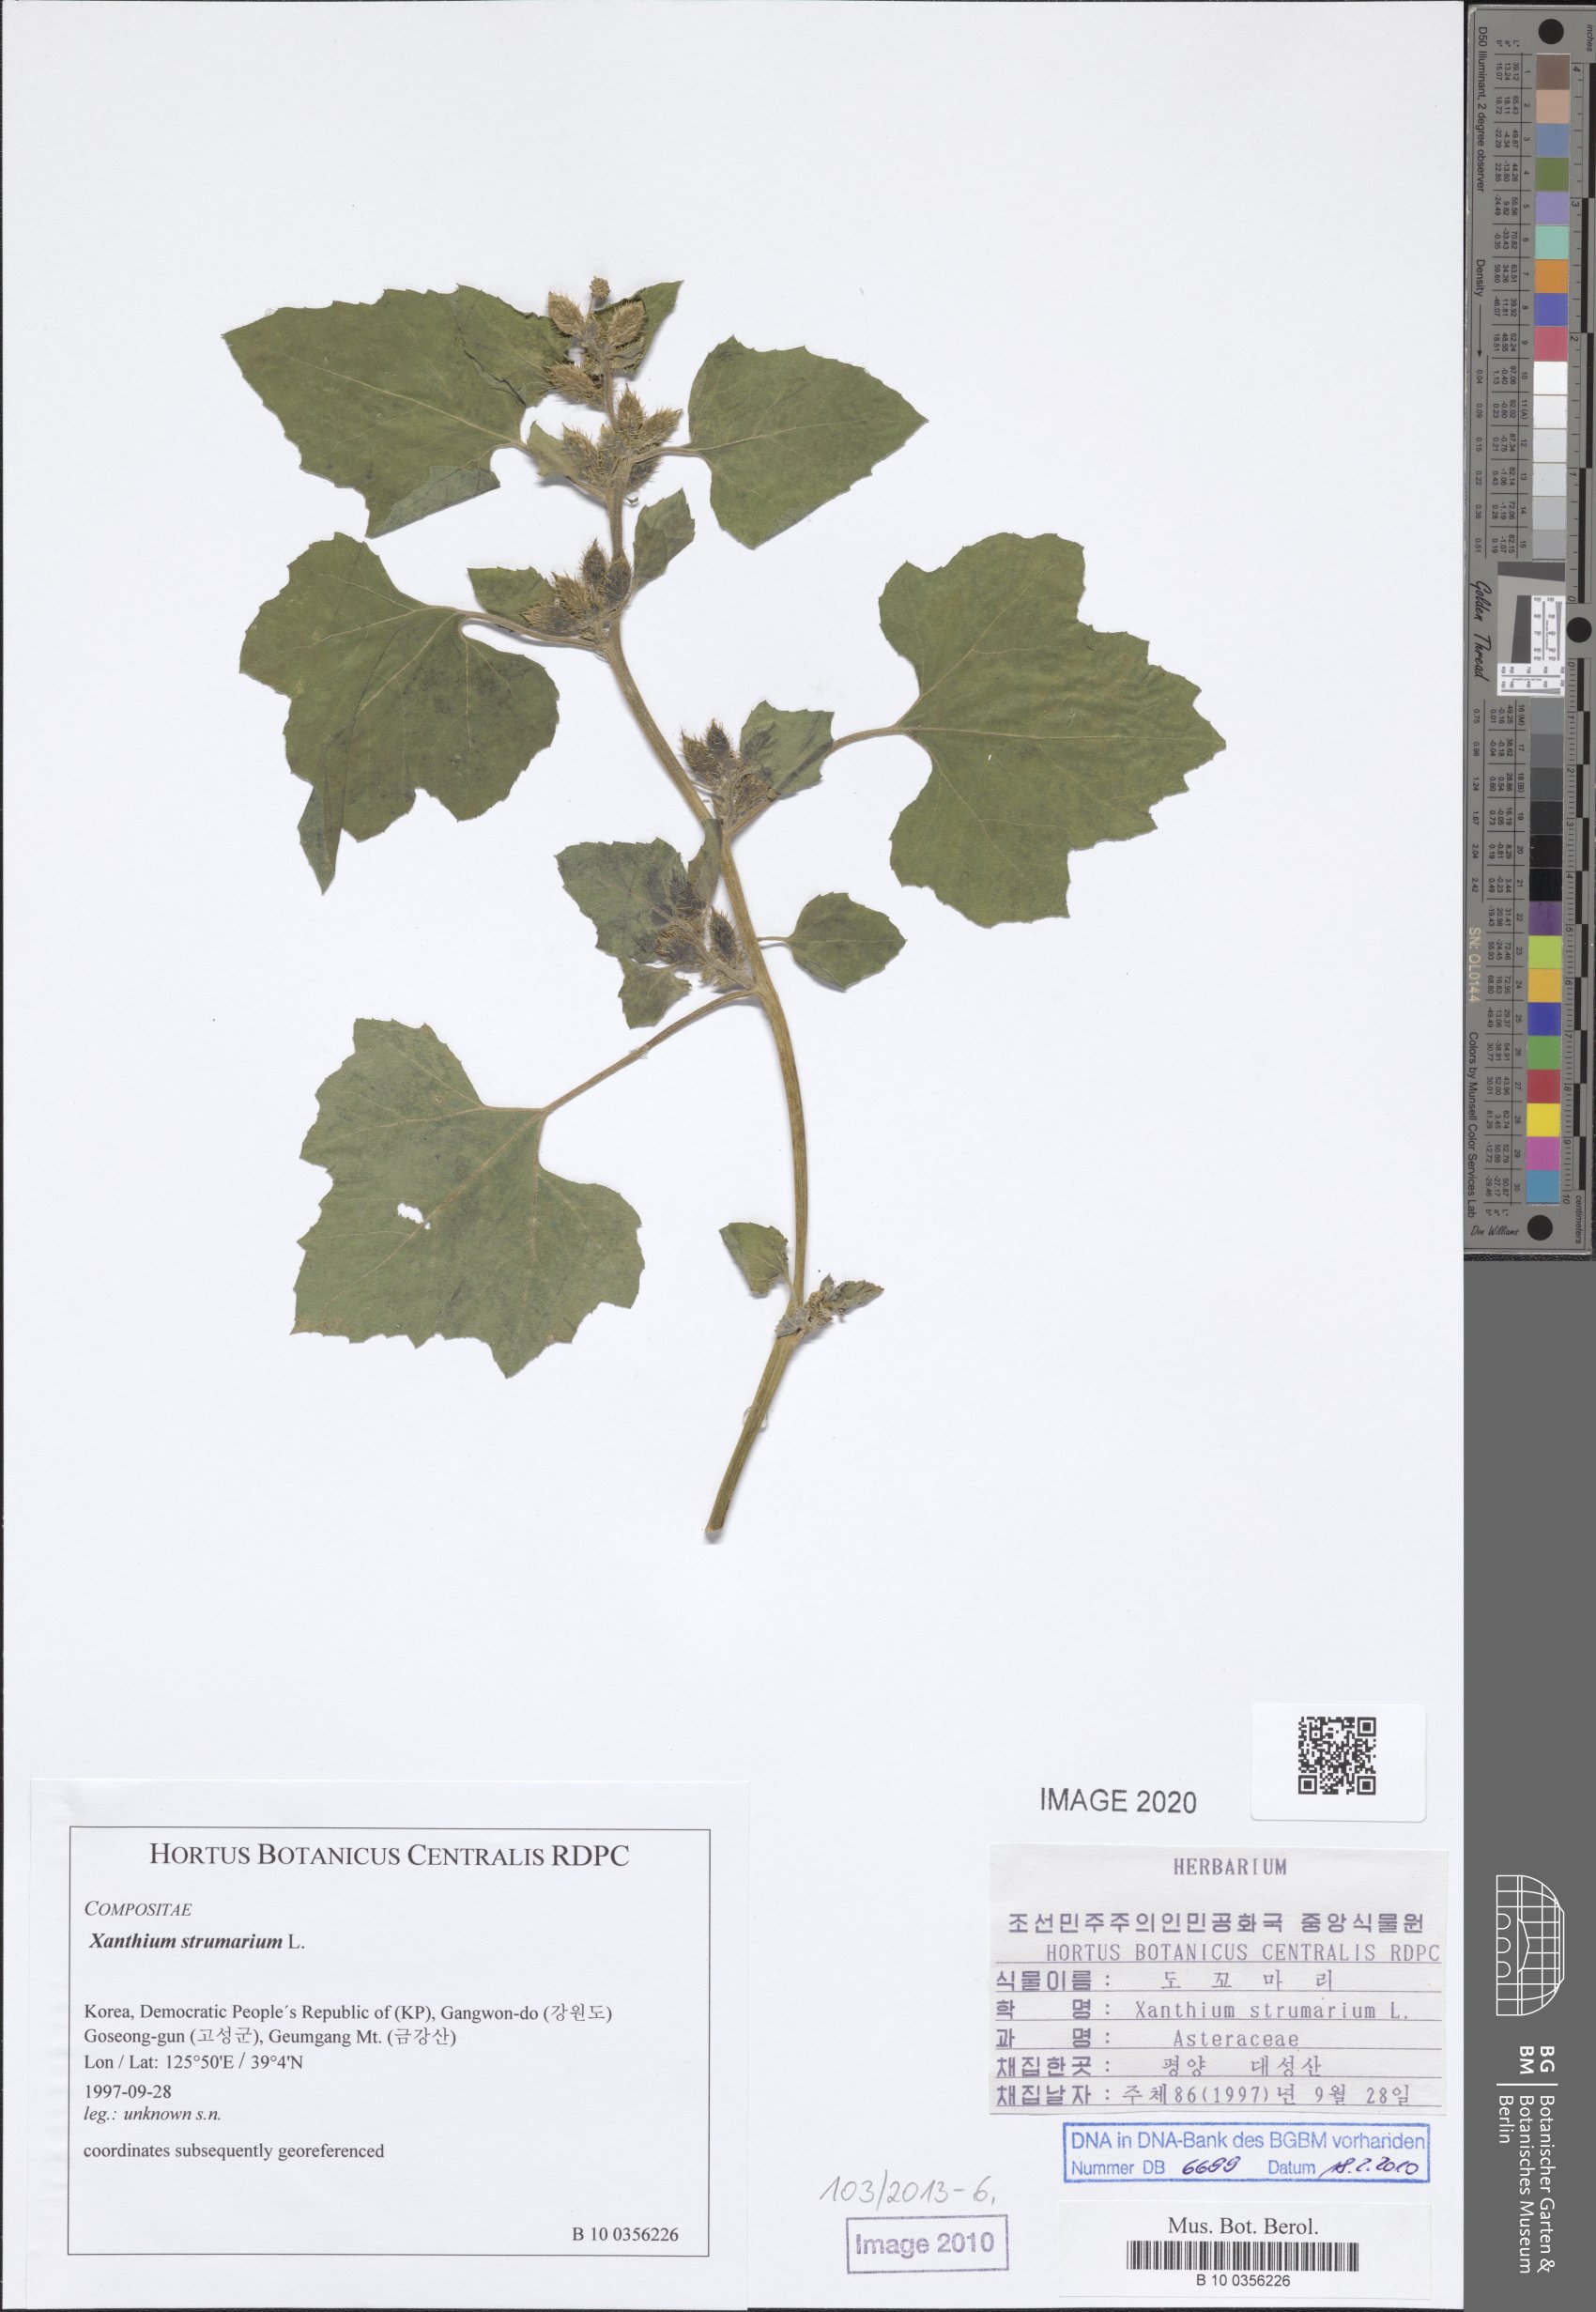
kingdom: Plantae
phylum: Tracheophyta
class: Magnoliopsida
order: Asterales
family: Asteraceae
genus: Xanthium
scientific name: Xanthium strumarium
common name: Rough cocklebur
